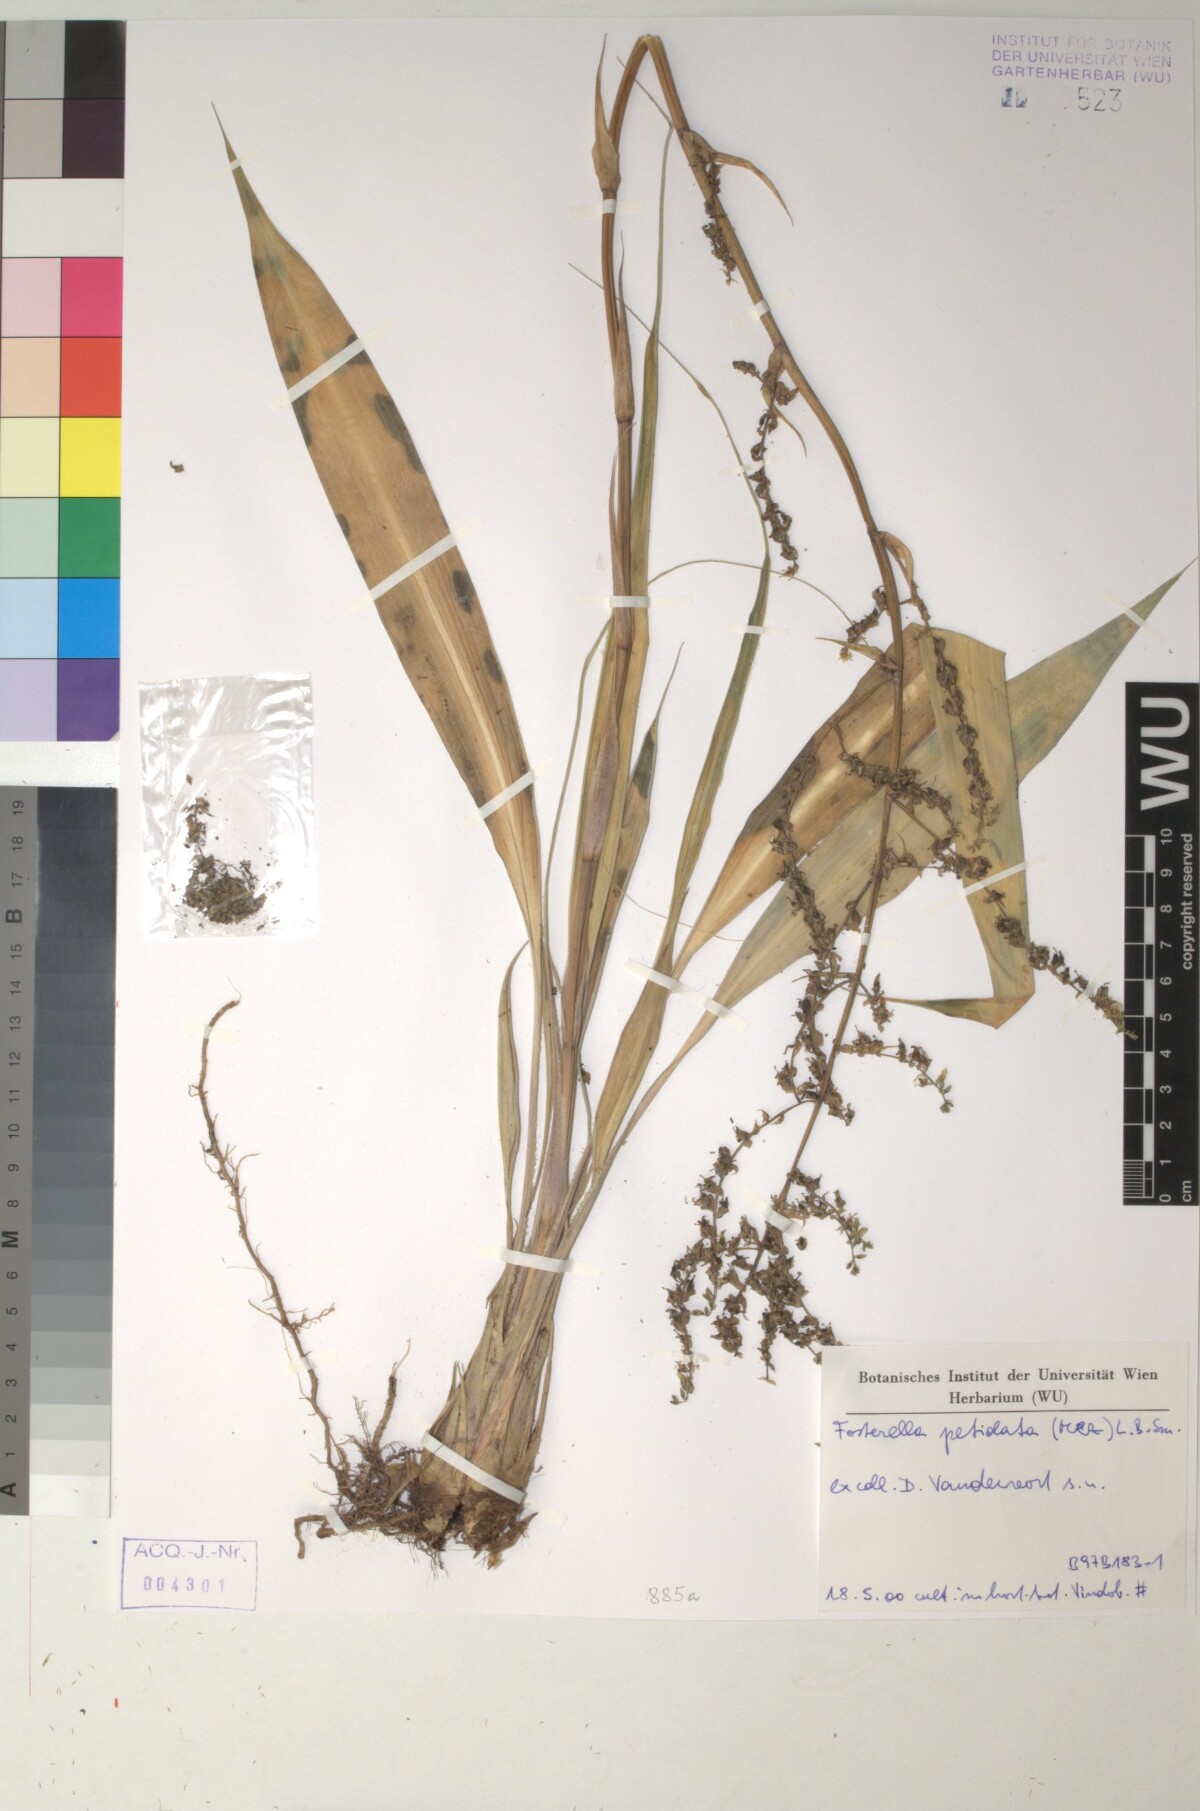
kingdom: Plantae
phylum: Tracheophyta
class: Liliopsida
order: Poales
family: Bromeliaceae
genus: Fosterella
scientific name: Fosterella petiolata
